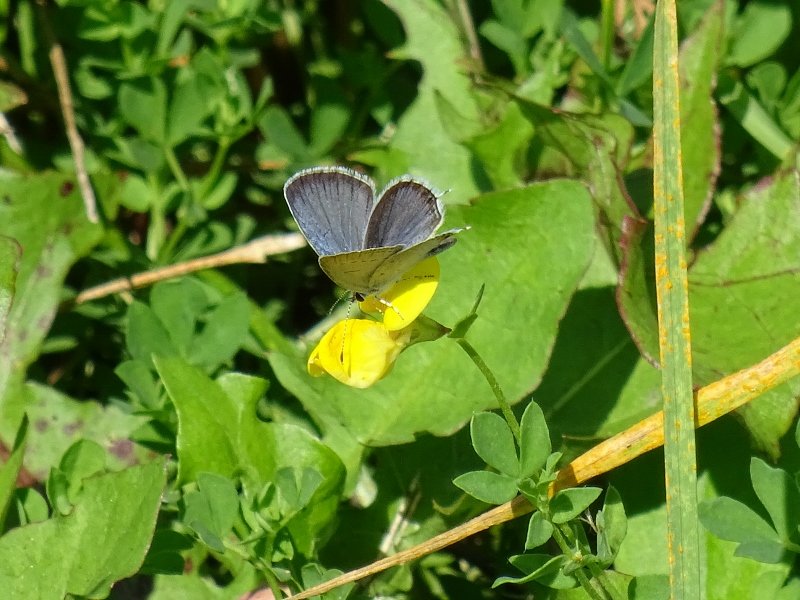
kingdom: Animalia
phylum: Arthropoda
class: Insecta
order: Lepidoptera
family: Lycaenidae
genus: Elkalyce
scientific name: Elkalyce comyntas
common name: Eastern Tailed-Blue
